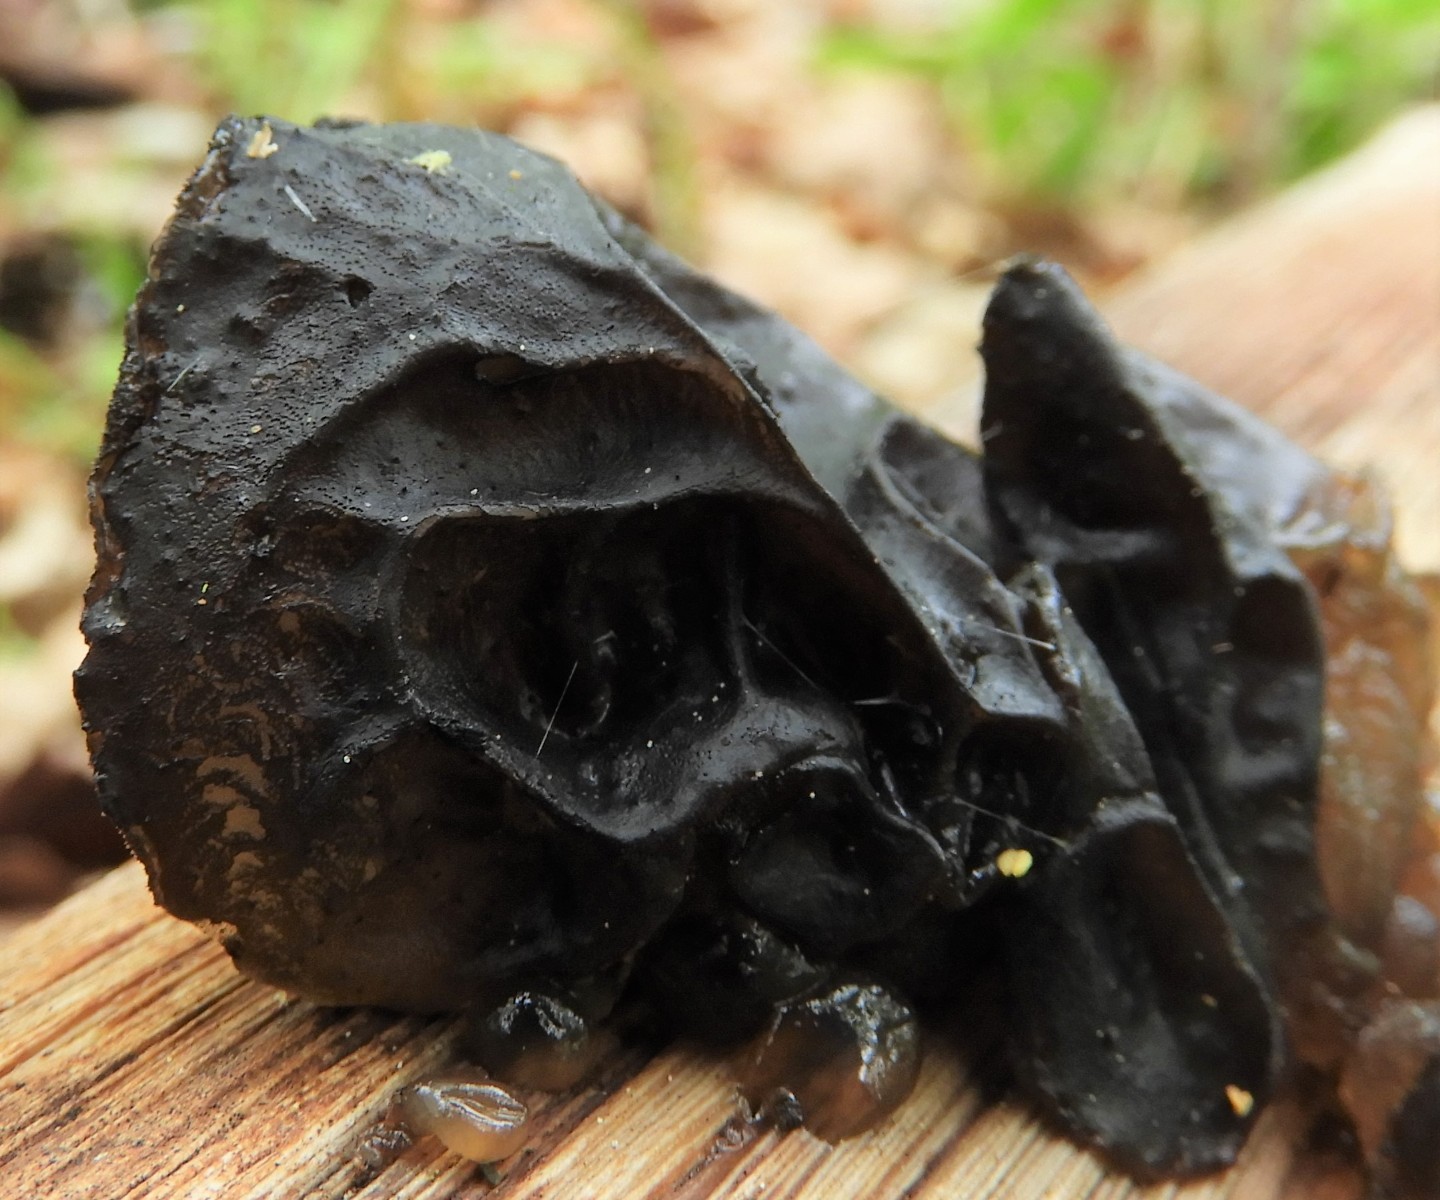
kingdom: Fungi
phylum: Basidiomycota
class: Agaricomycetes
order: Auriculariales
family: Auriculariaceae
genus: Exidia
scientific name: Exidia glandulosa
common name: ege-bævretop
